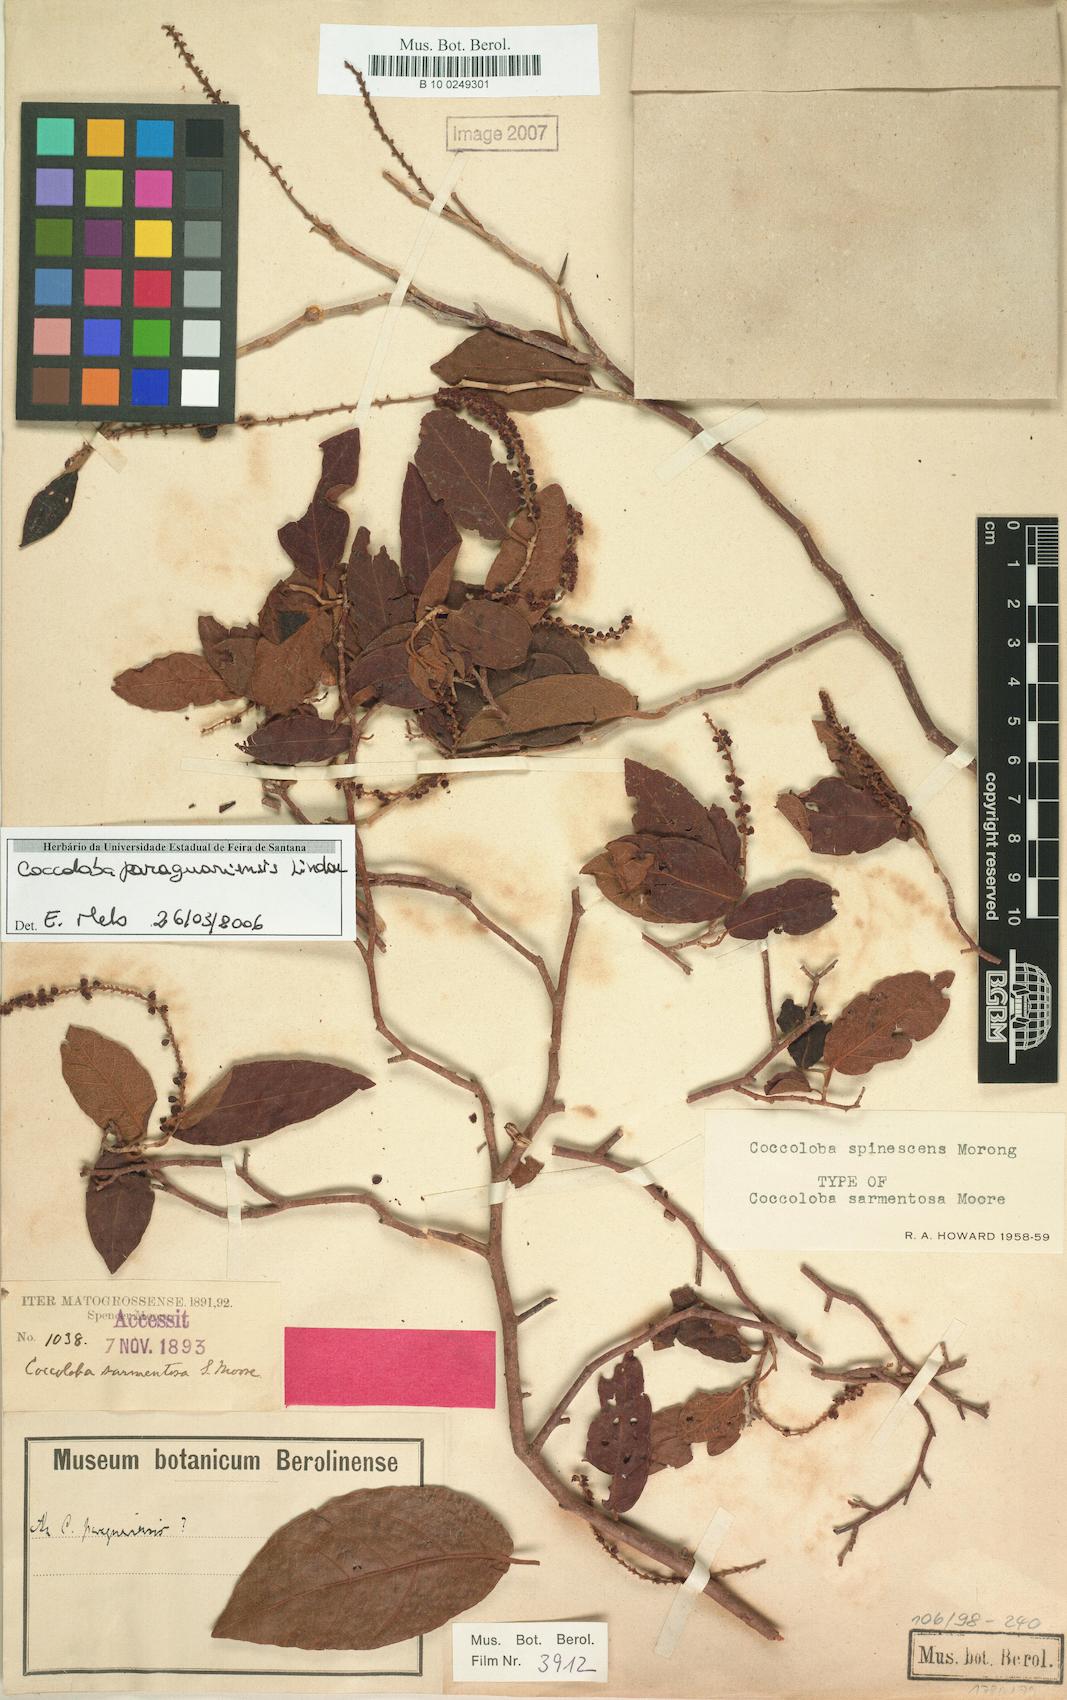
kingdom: Plantae
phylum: Tracheophyta
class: Magnoliopsida
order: Caryophyllales
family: Polygonaceae
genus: Coccoloba
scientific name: Coccoloba paraguariensis
